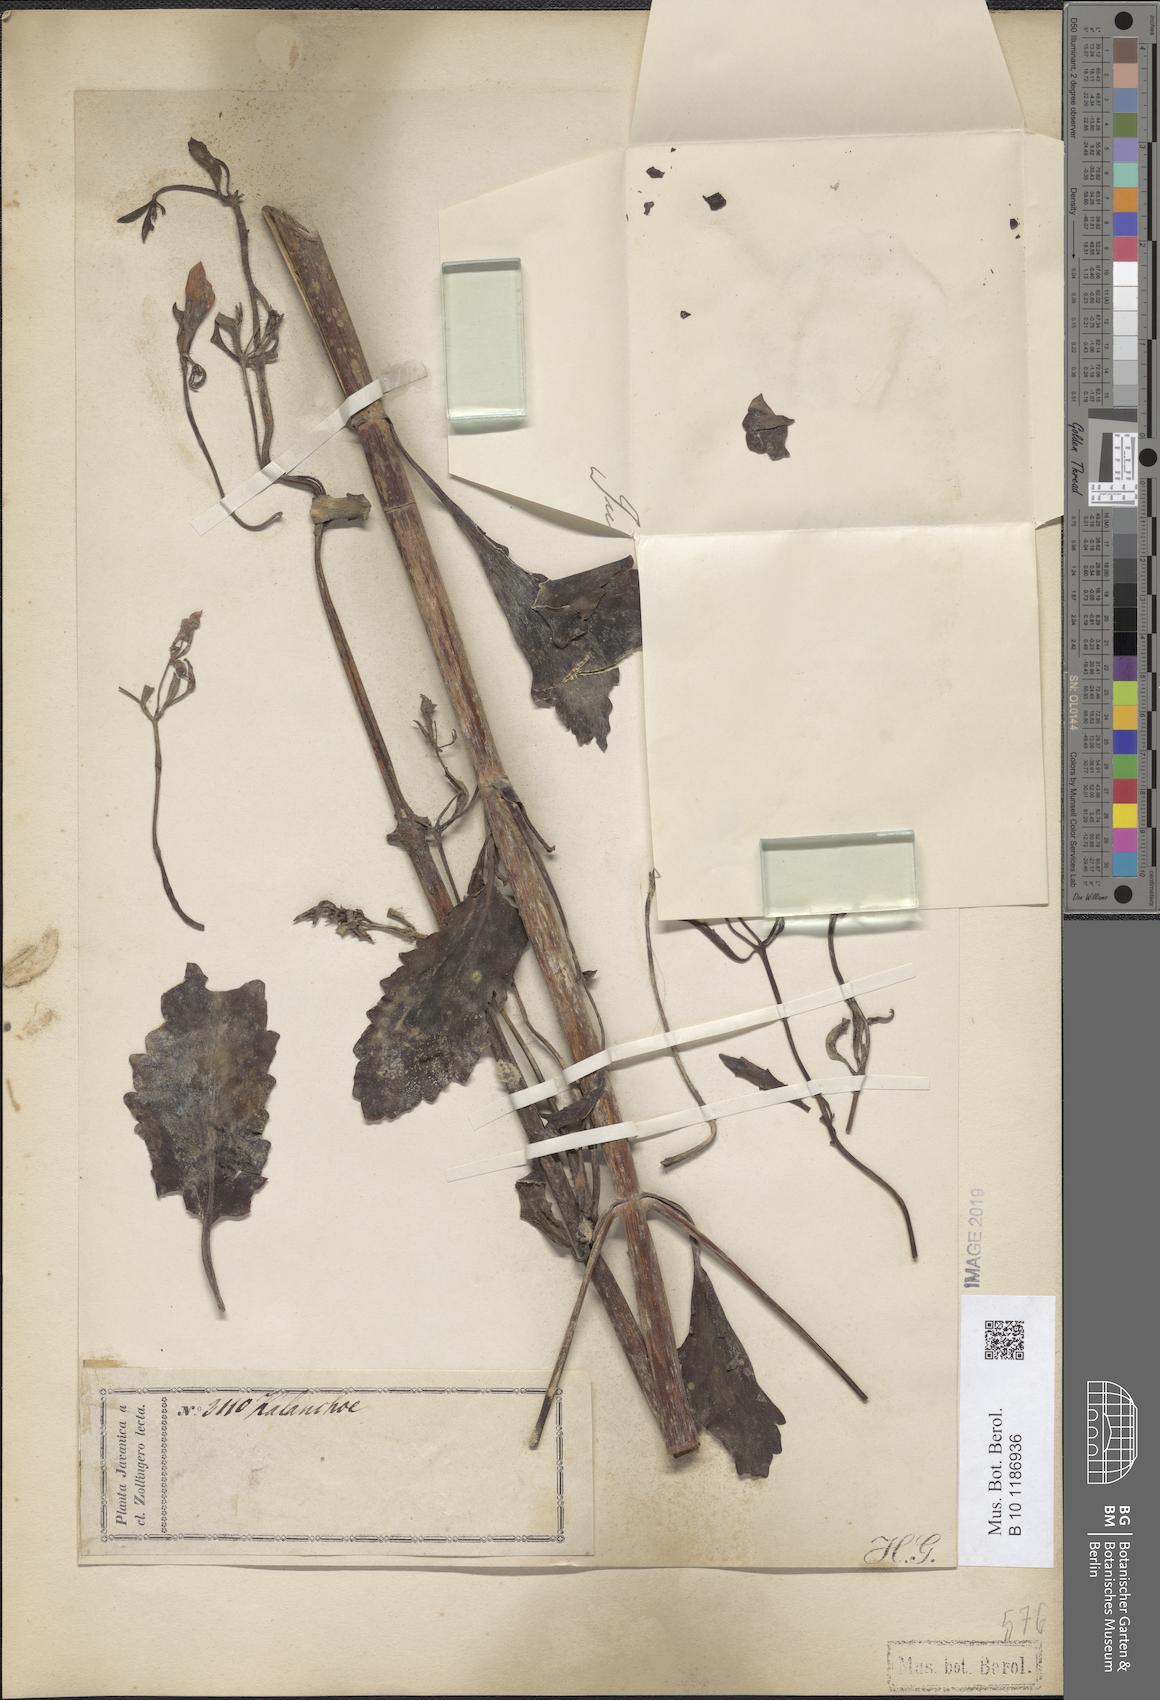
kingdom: Plantae
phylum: Tracheophyta
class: Magnoliopsida
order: Saxifragales
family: Crassulaceae
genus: Kalanchoe
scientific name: Kalanchoe
